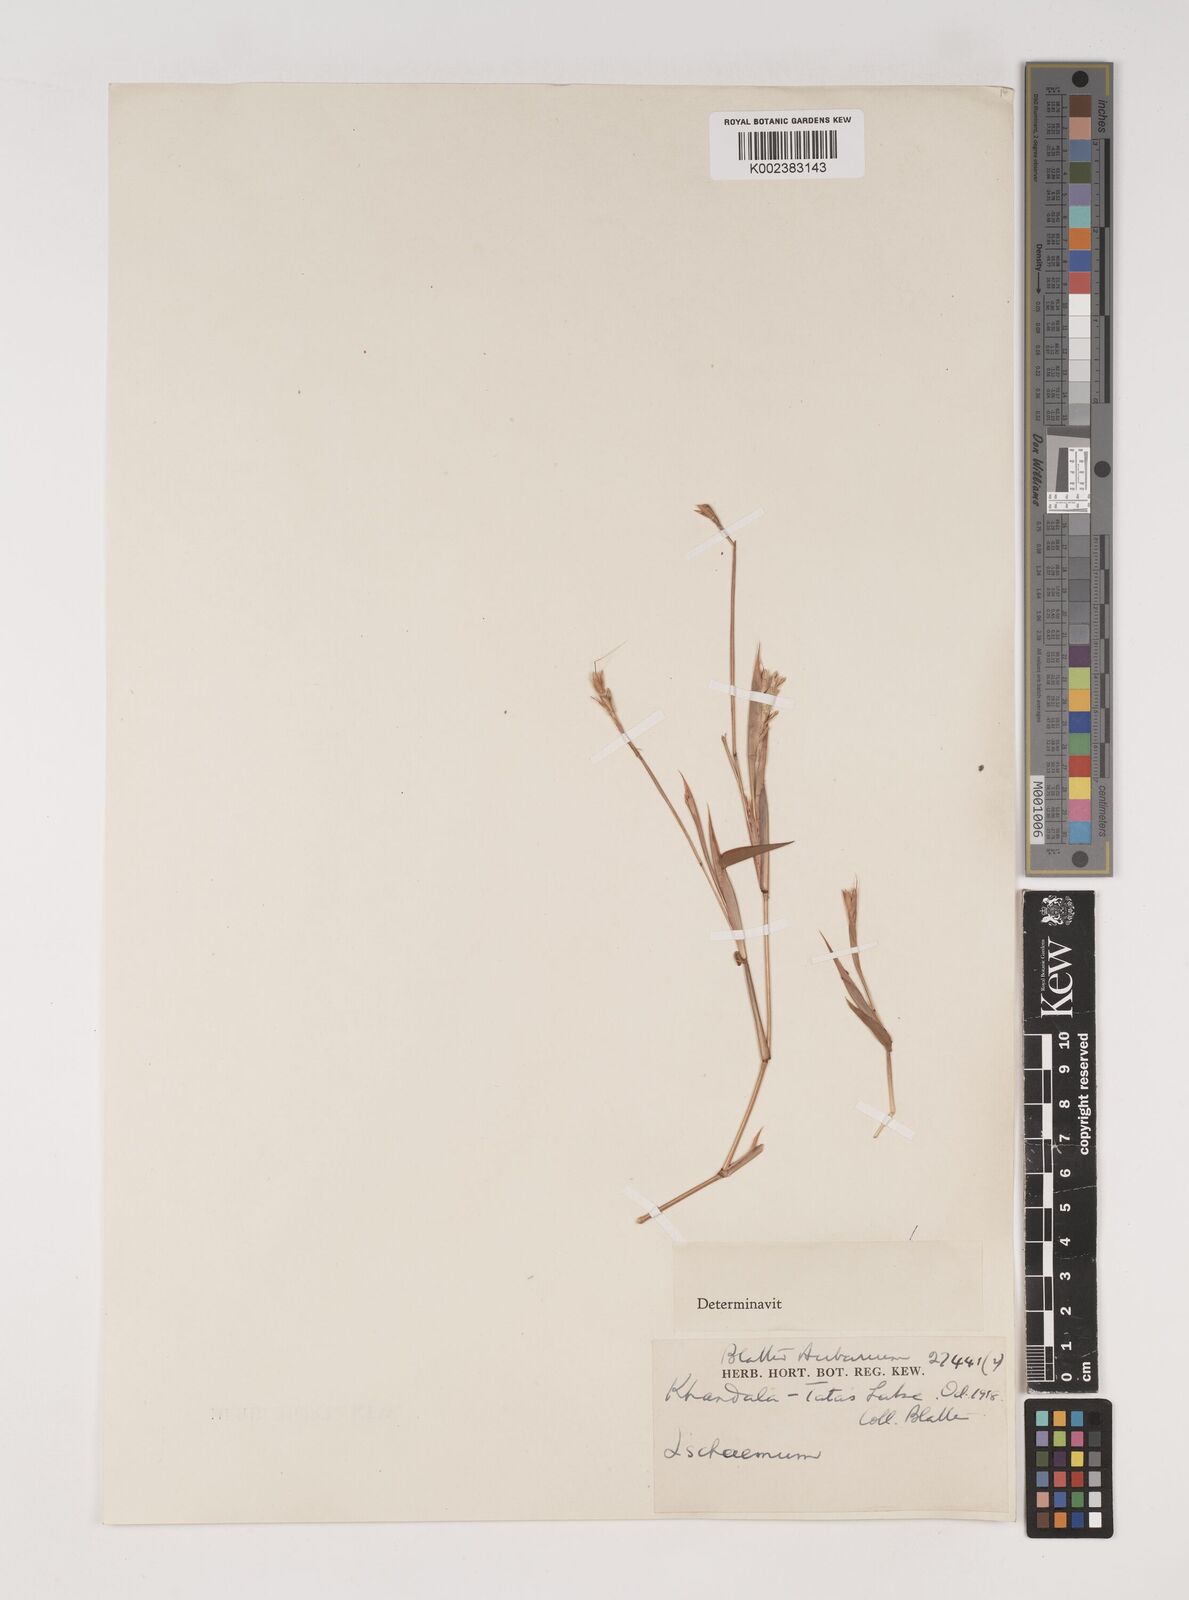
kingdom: Plantae
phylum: Tracheophyta
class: Liliopsida
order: Poales
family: Poaceae
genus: Ischaemum
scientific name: Ischaemum semisagittatum
